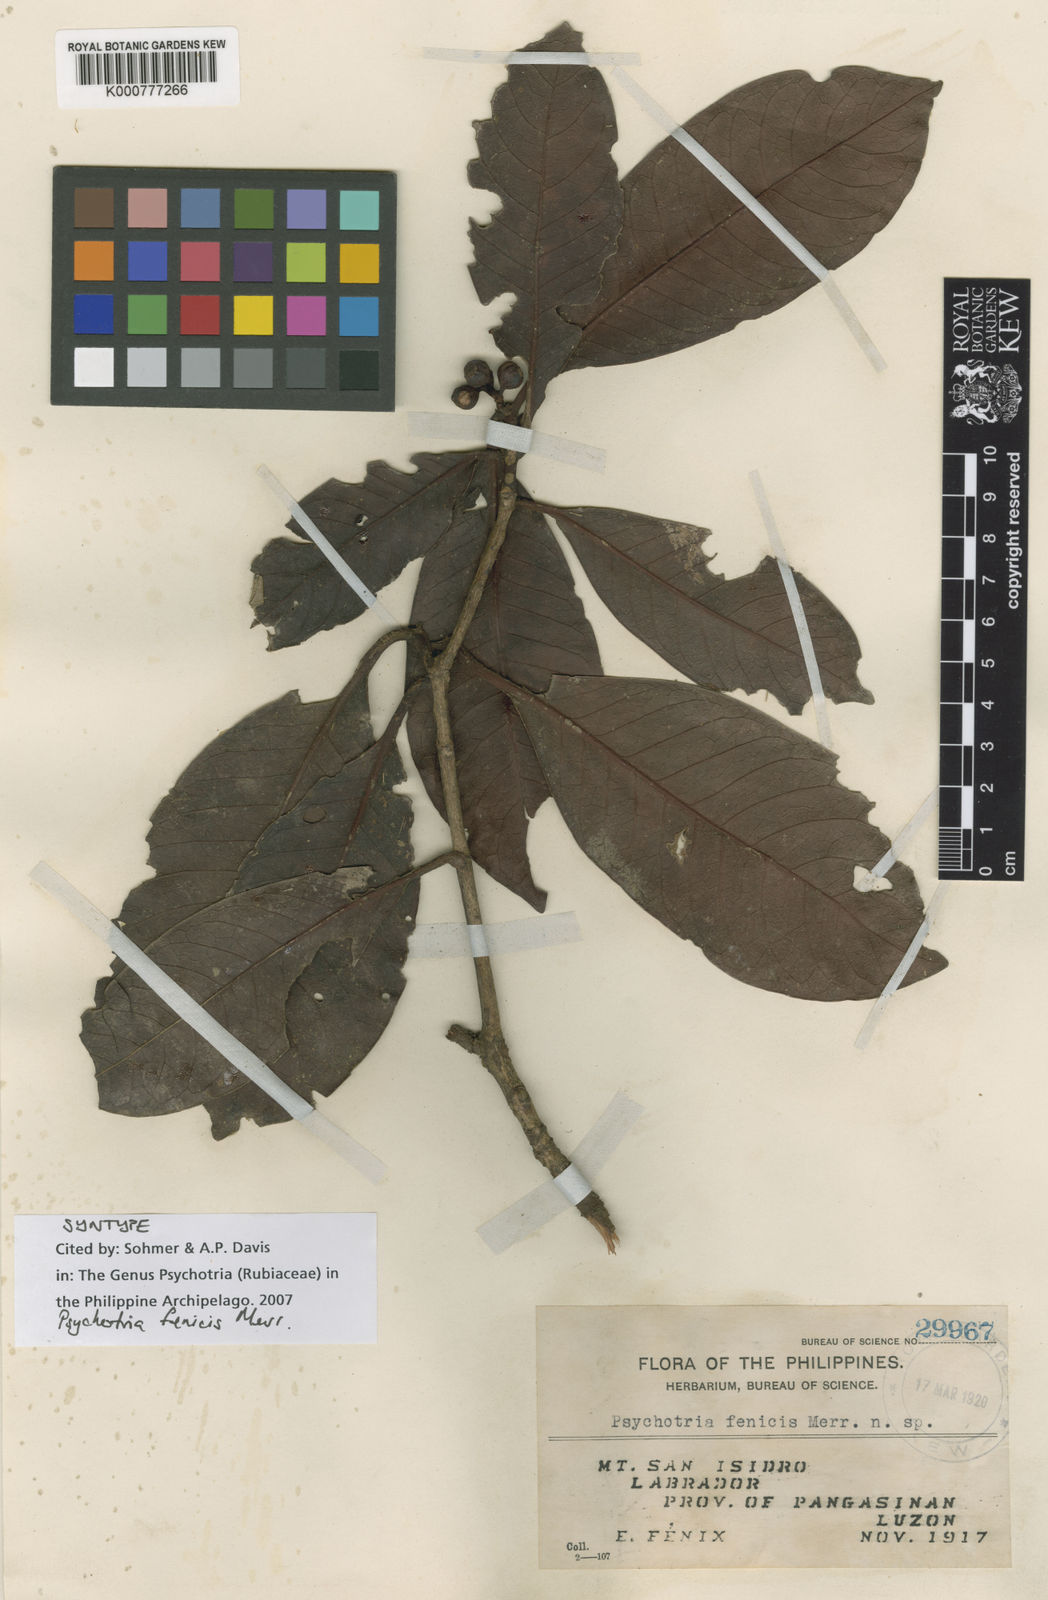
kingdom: Plantae
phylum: Tracheophyta
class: Magnoliopsida
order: Gentianales
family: Rubiaceae
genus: Psychotria
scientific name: Psychotria fenicis
